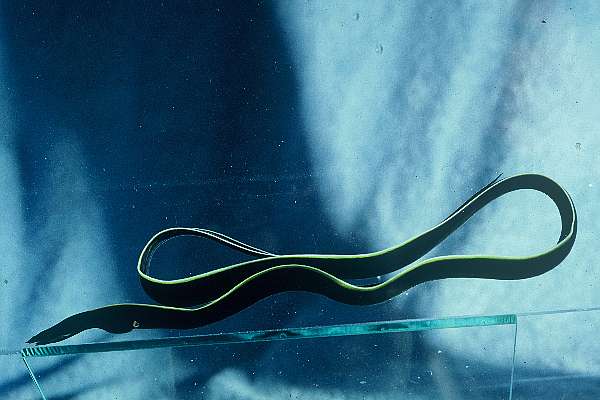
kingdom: Animalia
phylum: Chordata
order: Anguilliformes
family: Muraenidae
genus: Rhinomuraena
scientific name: Rhinomuraena quaesita
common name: Ribbon eel
